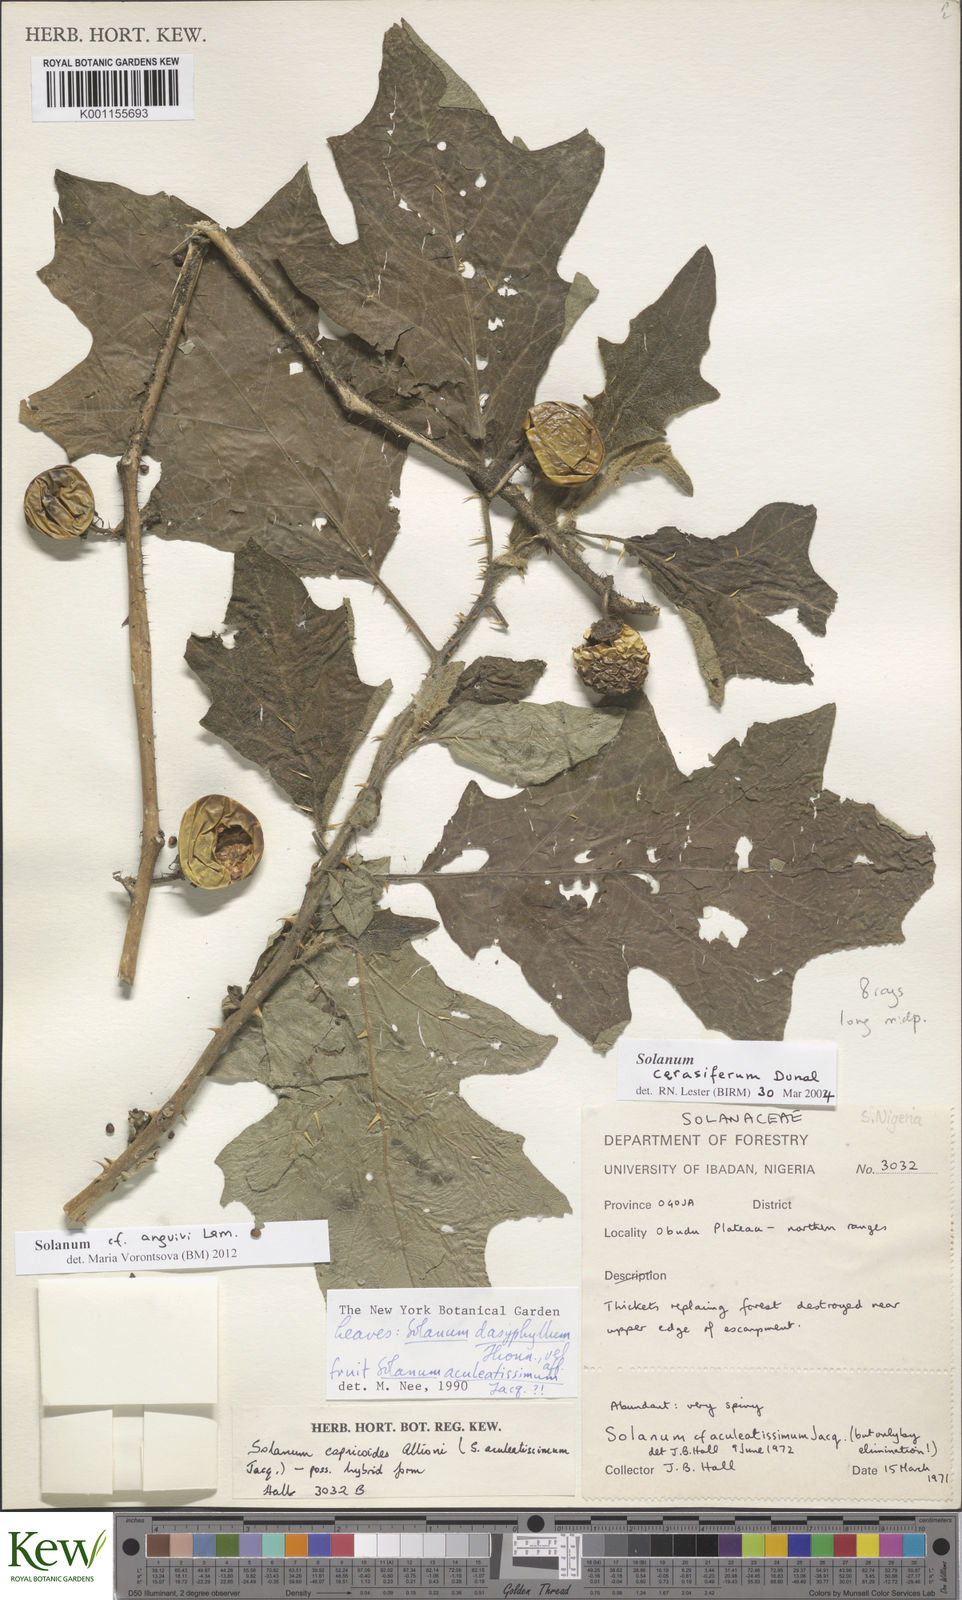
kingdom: Plantae
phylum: Tracheophyta
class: Magnoliopsida
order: Solanales
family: Solanaceae
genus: Solanum
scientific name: Solanum anguivi
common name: Forest bitterberry
